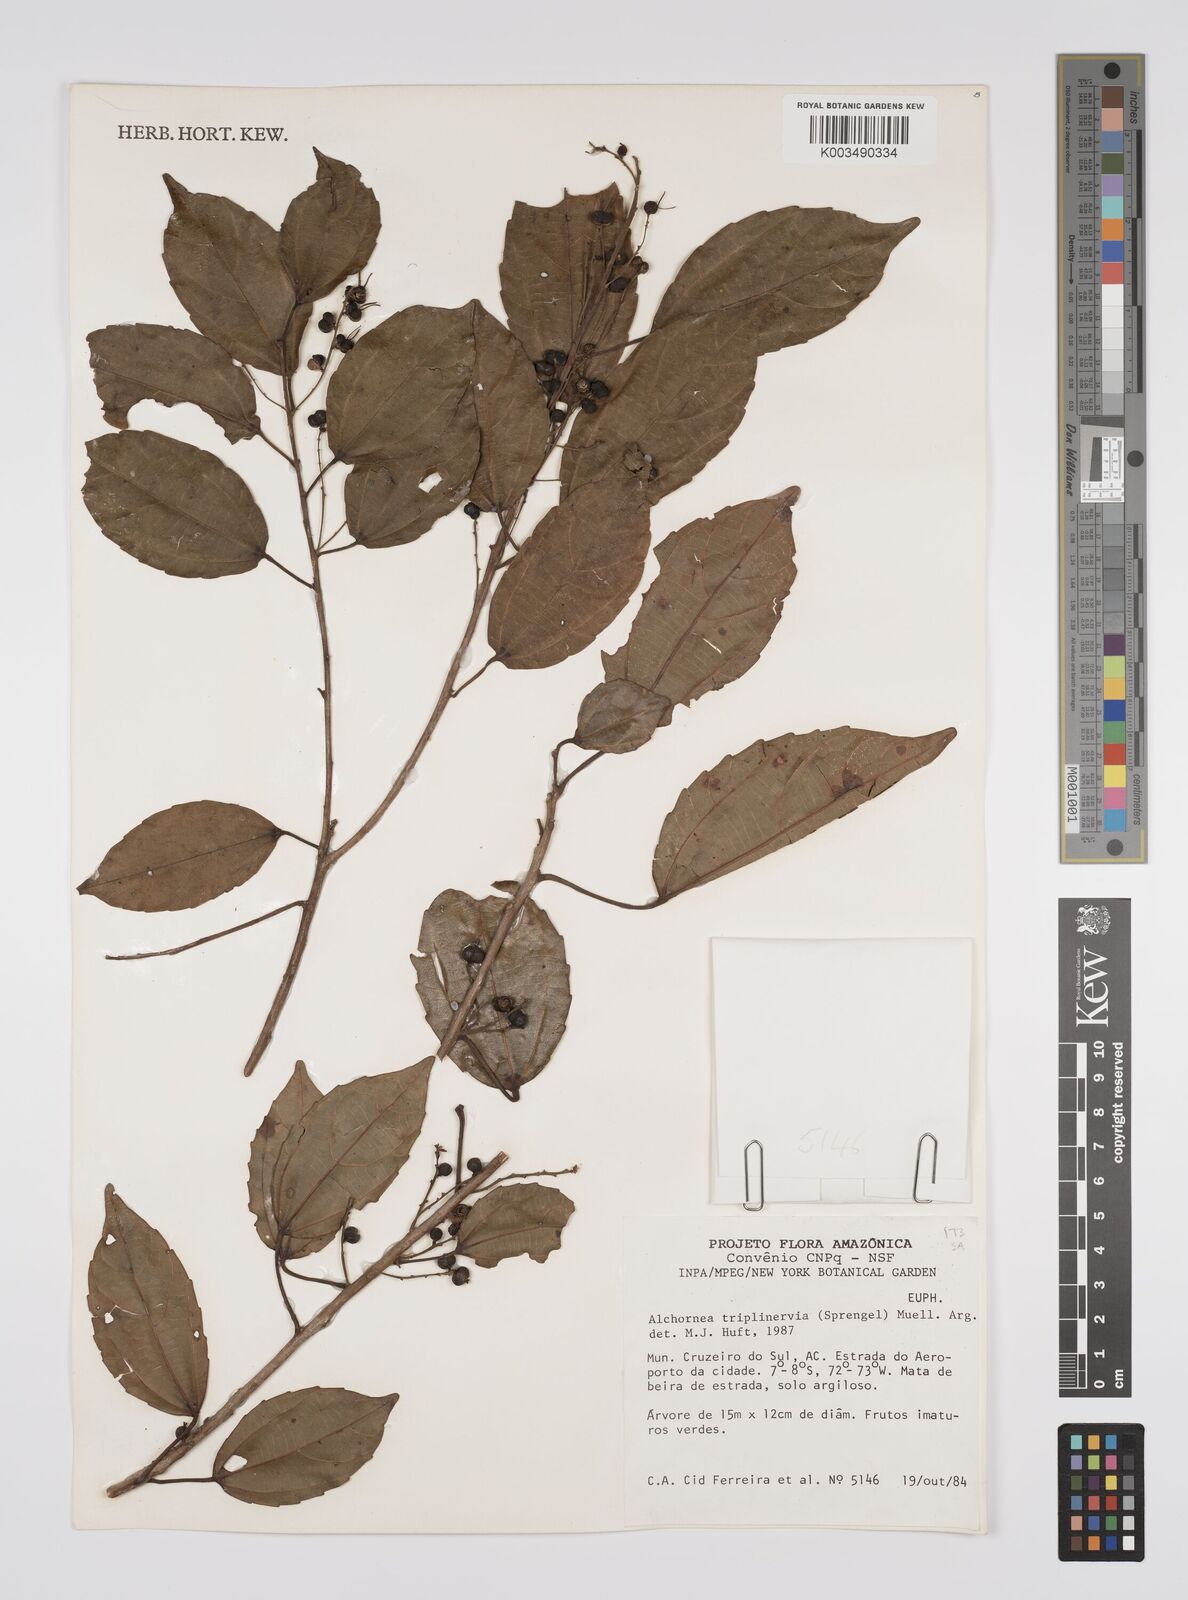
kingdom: Plantae
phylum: Tracheophyta
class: Magnoliopsida
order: Malpighiales
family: Euphorbiaceae
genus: Alchornea
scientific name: Alchornea triplinervia
